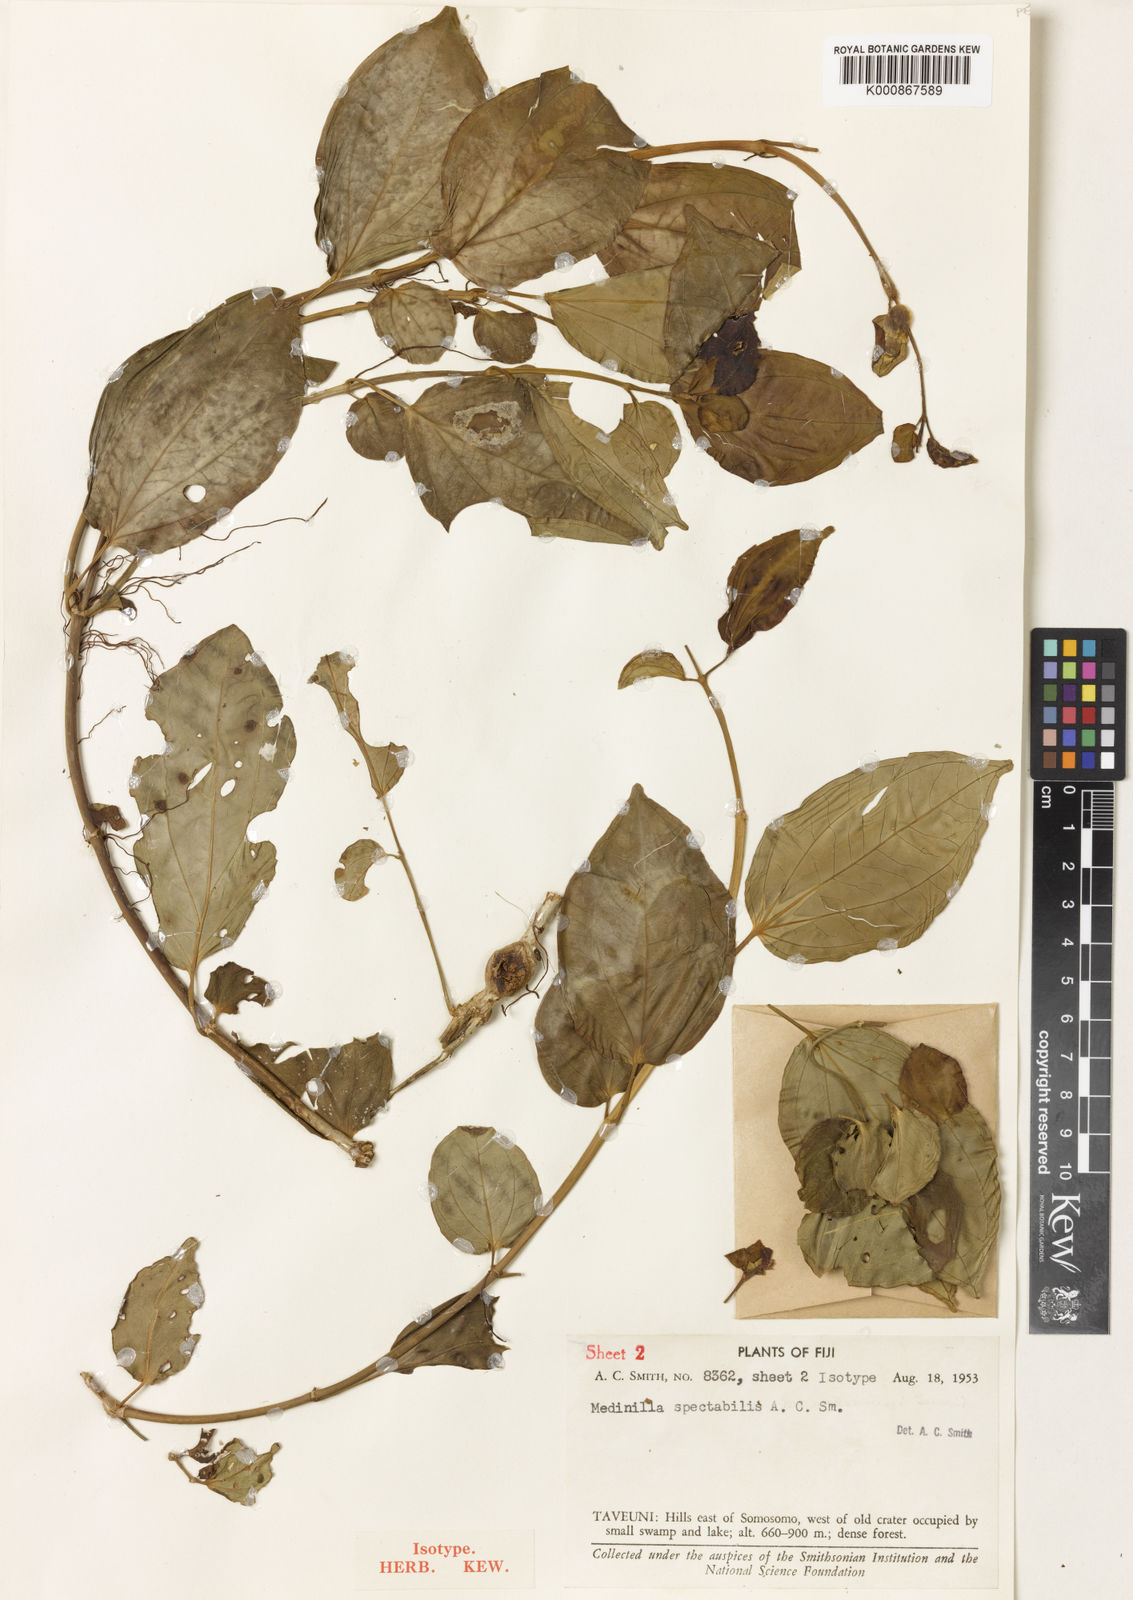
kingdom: Plantae
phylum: Tracheophyta
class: Magnoliopsida
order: Myrtales
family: Melastomataceae
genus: Medinilla
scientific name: Medinilla spectabilis
